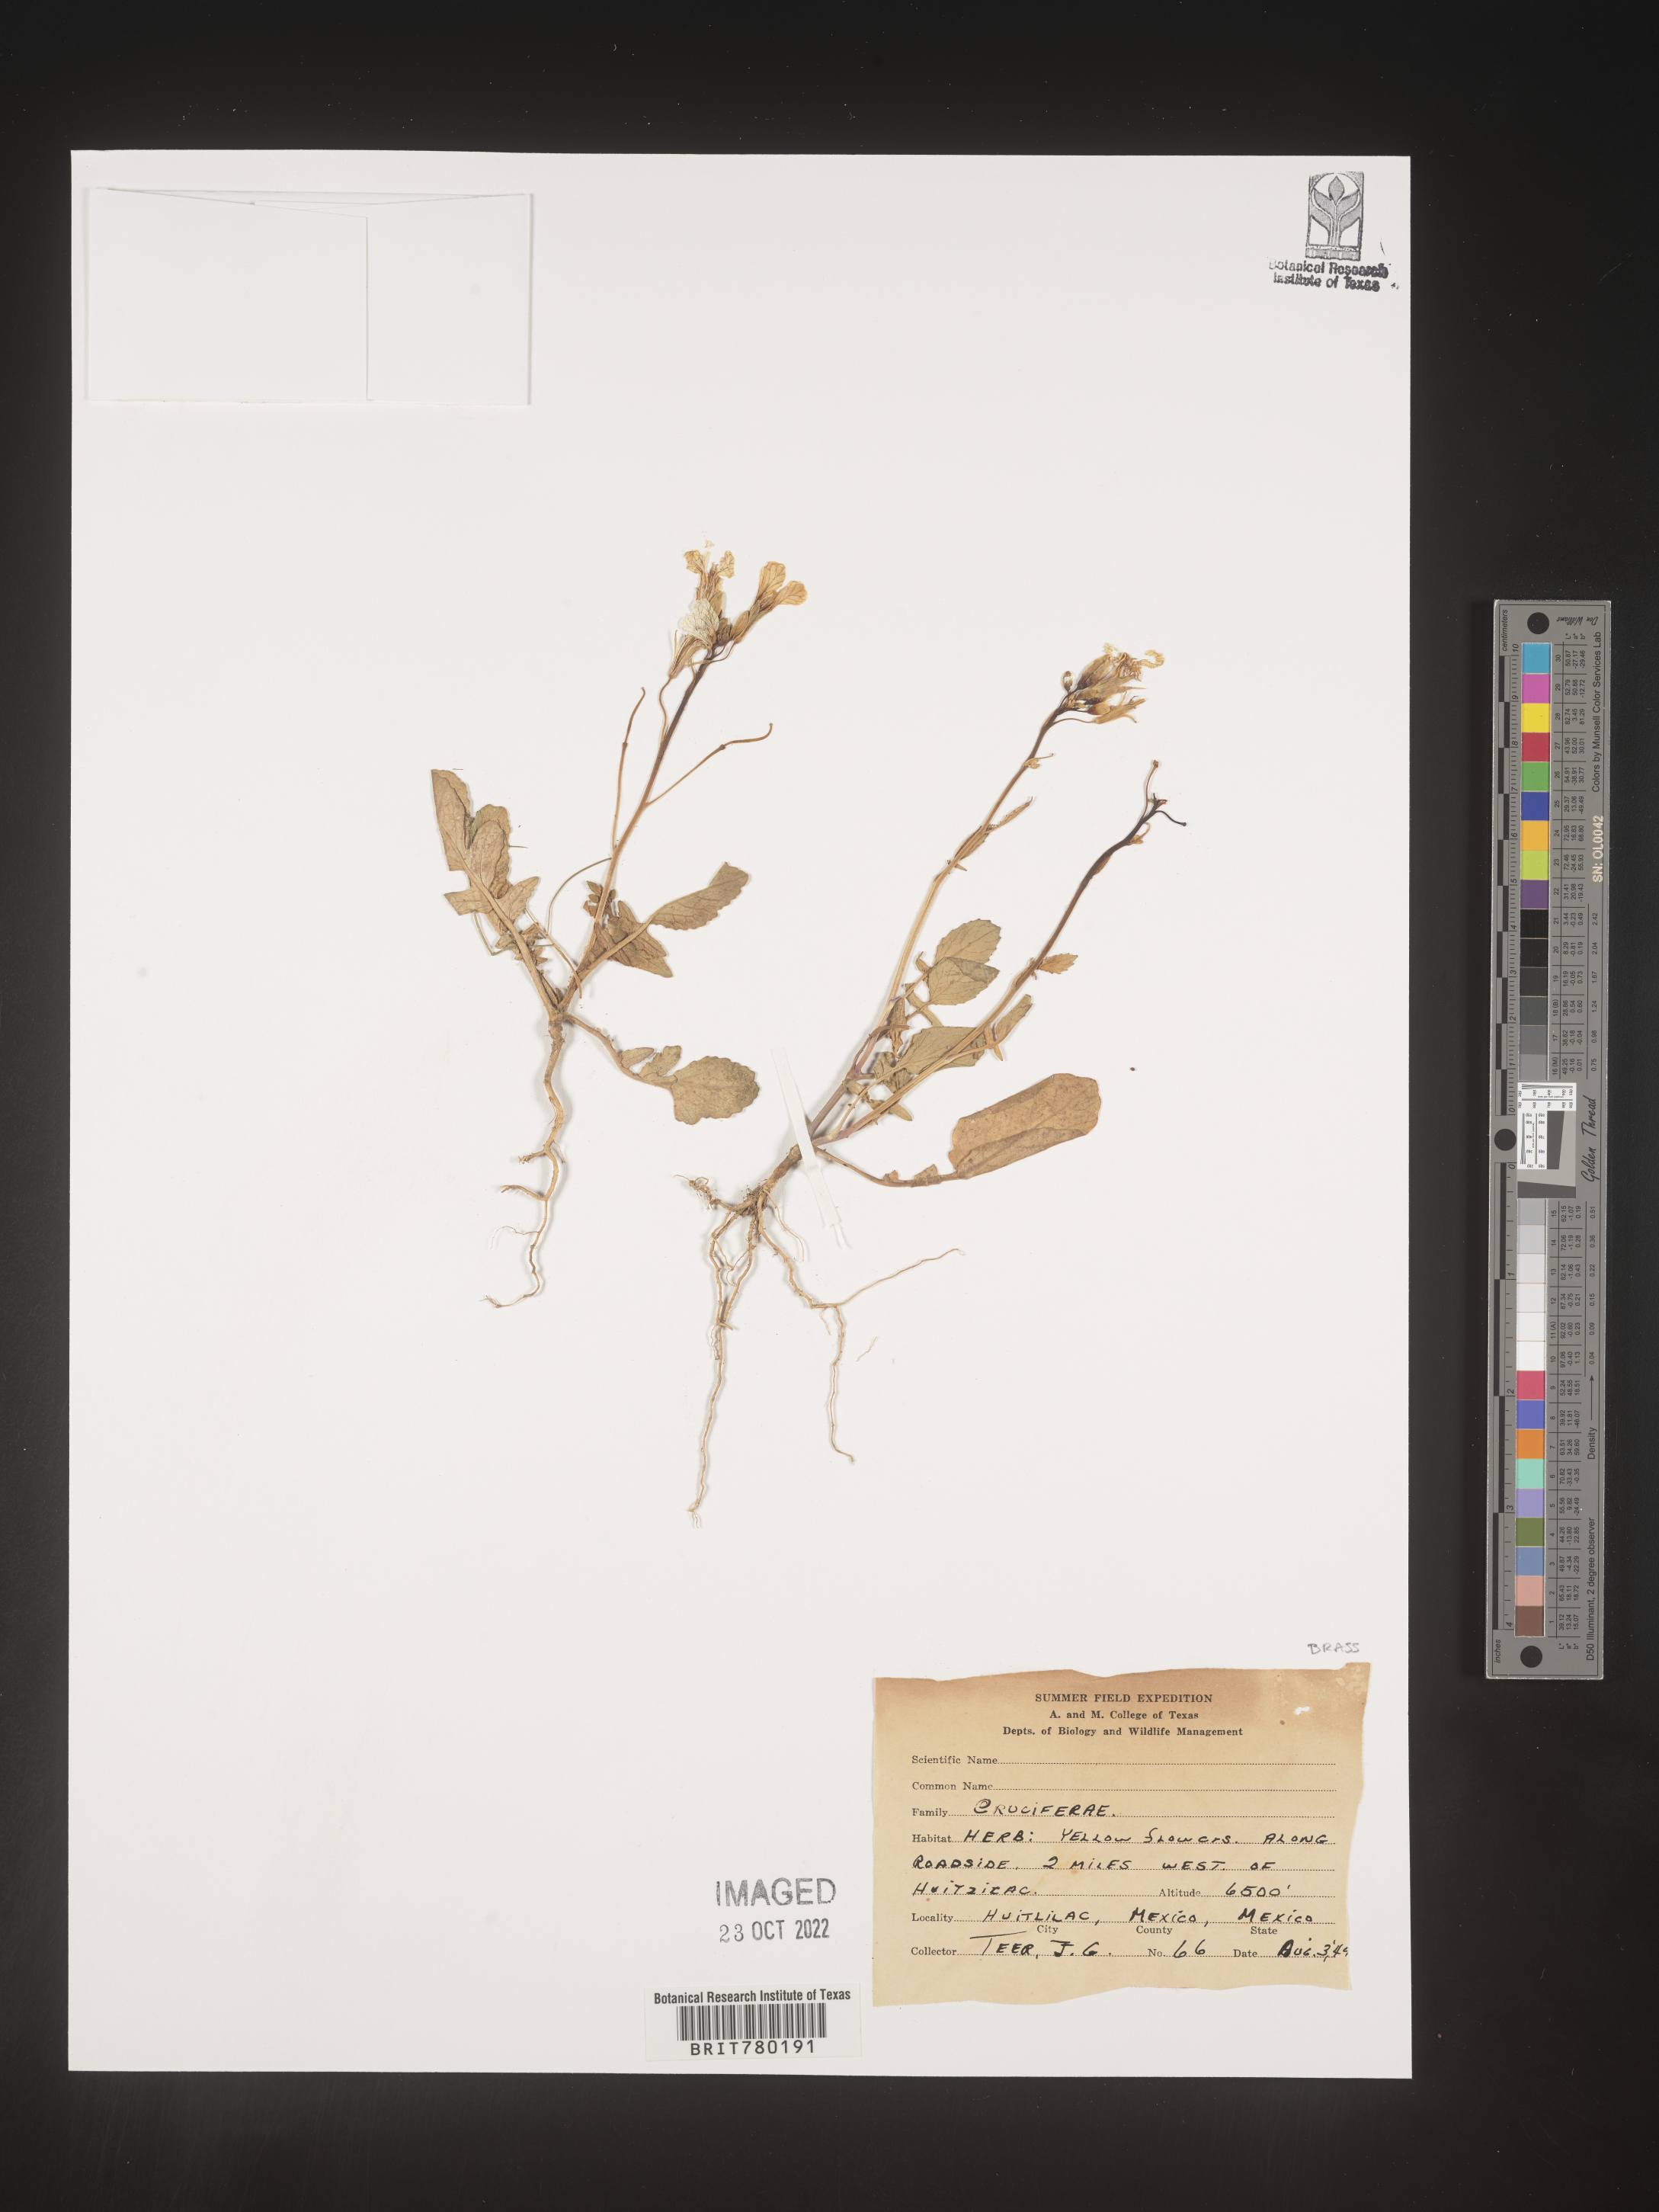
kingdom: Plantae
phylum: Tracheophyta
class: Magnoliopsida
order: Brassicales
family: Brassicaceae
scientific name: Brassicaceae
